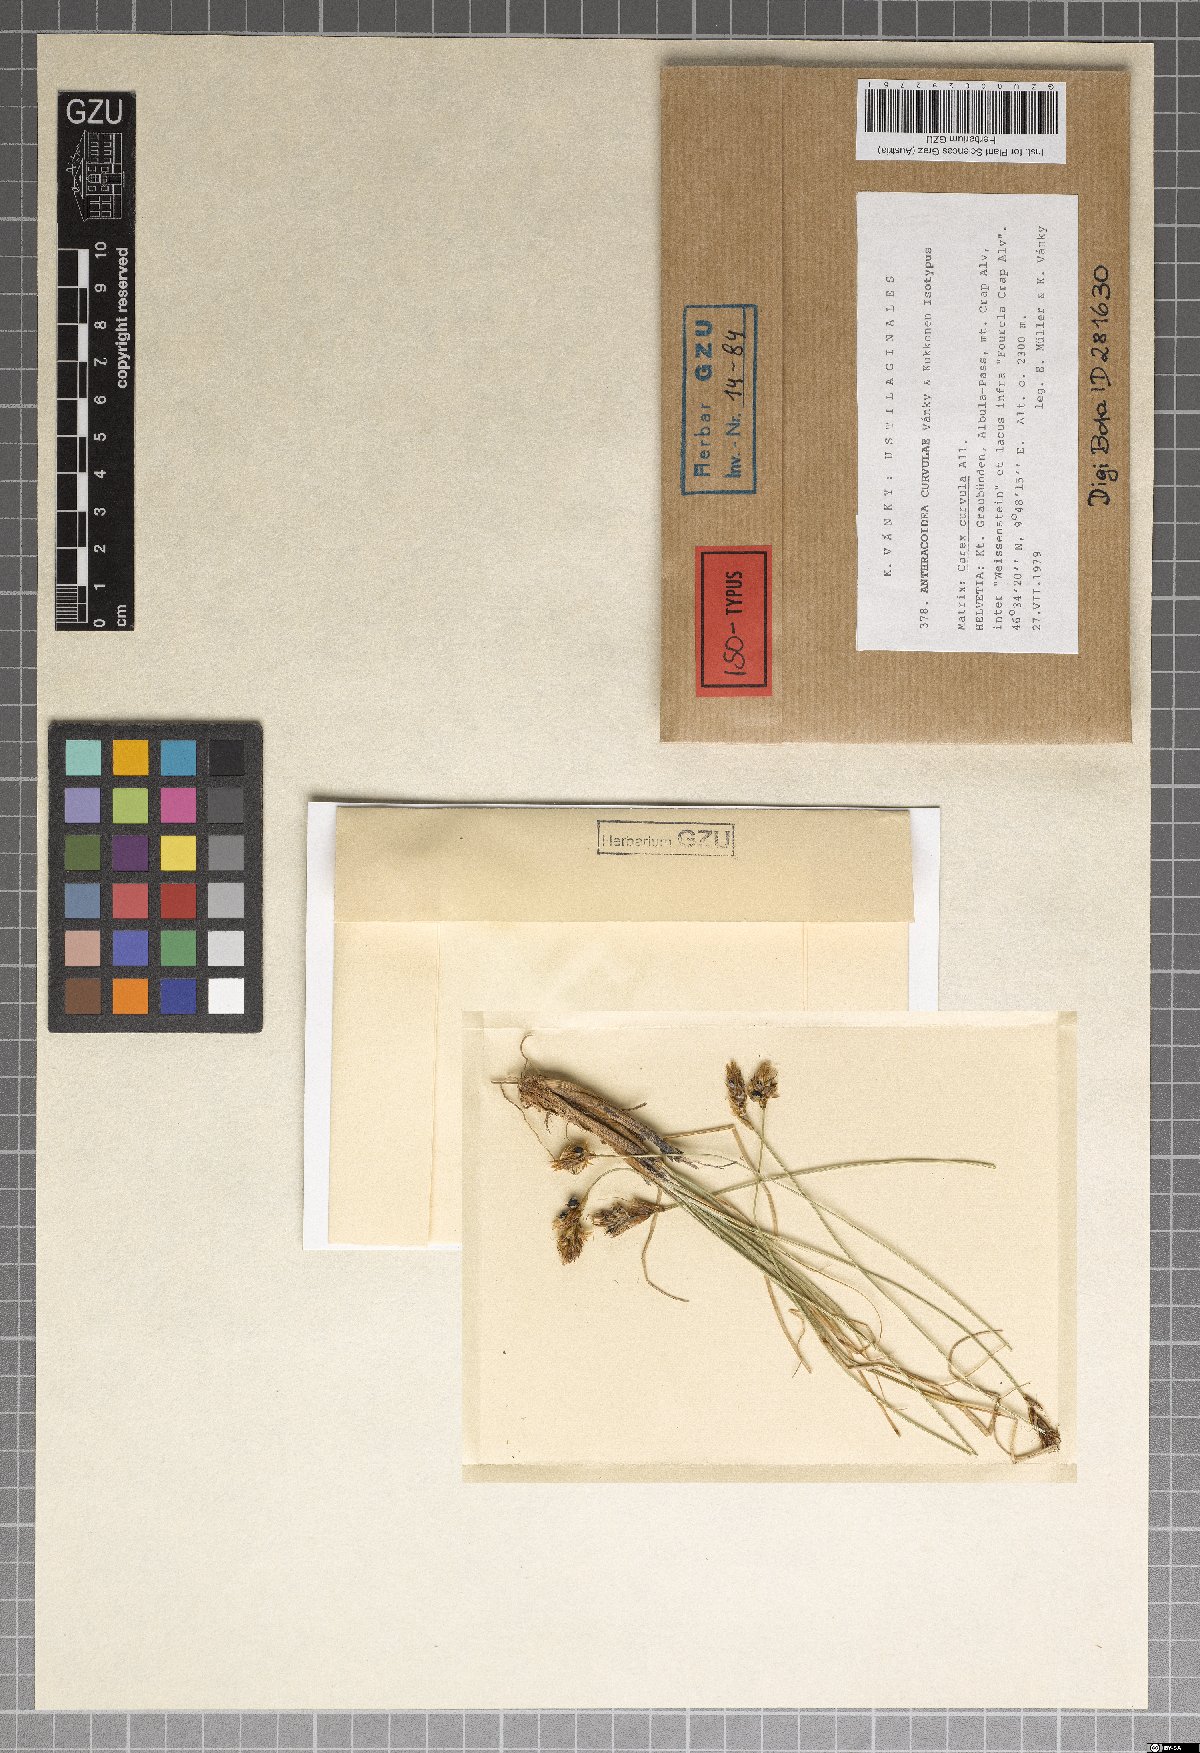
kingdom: Fungi
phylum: Basidiomycota
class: Ustilaginomycetes
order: Ustilaginales
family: Anthracoideaceae
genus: Anthracoidea
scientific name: Anthracoidea curvulae
